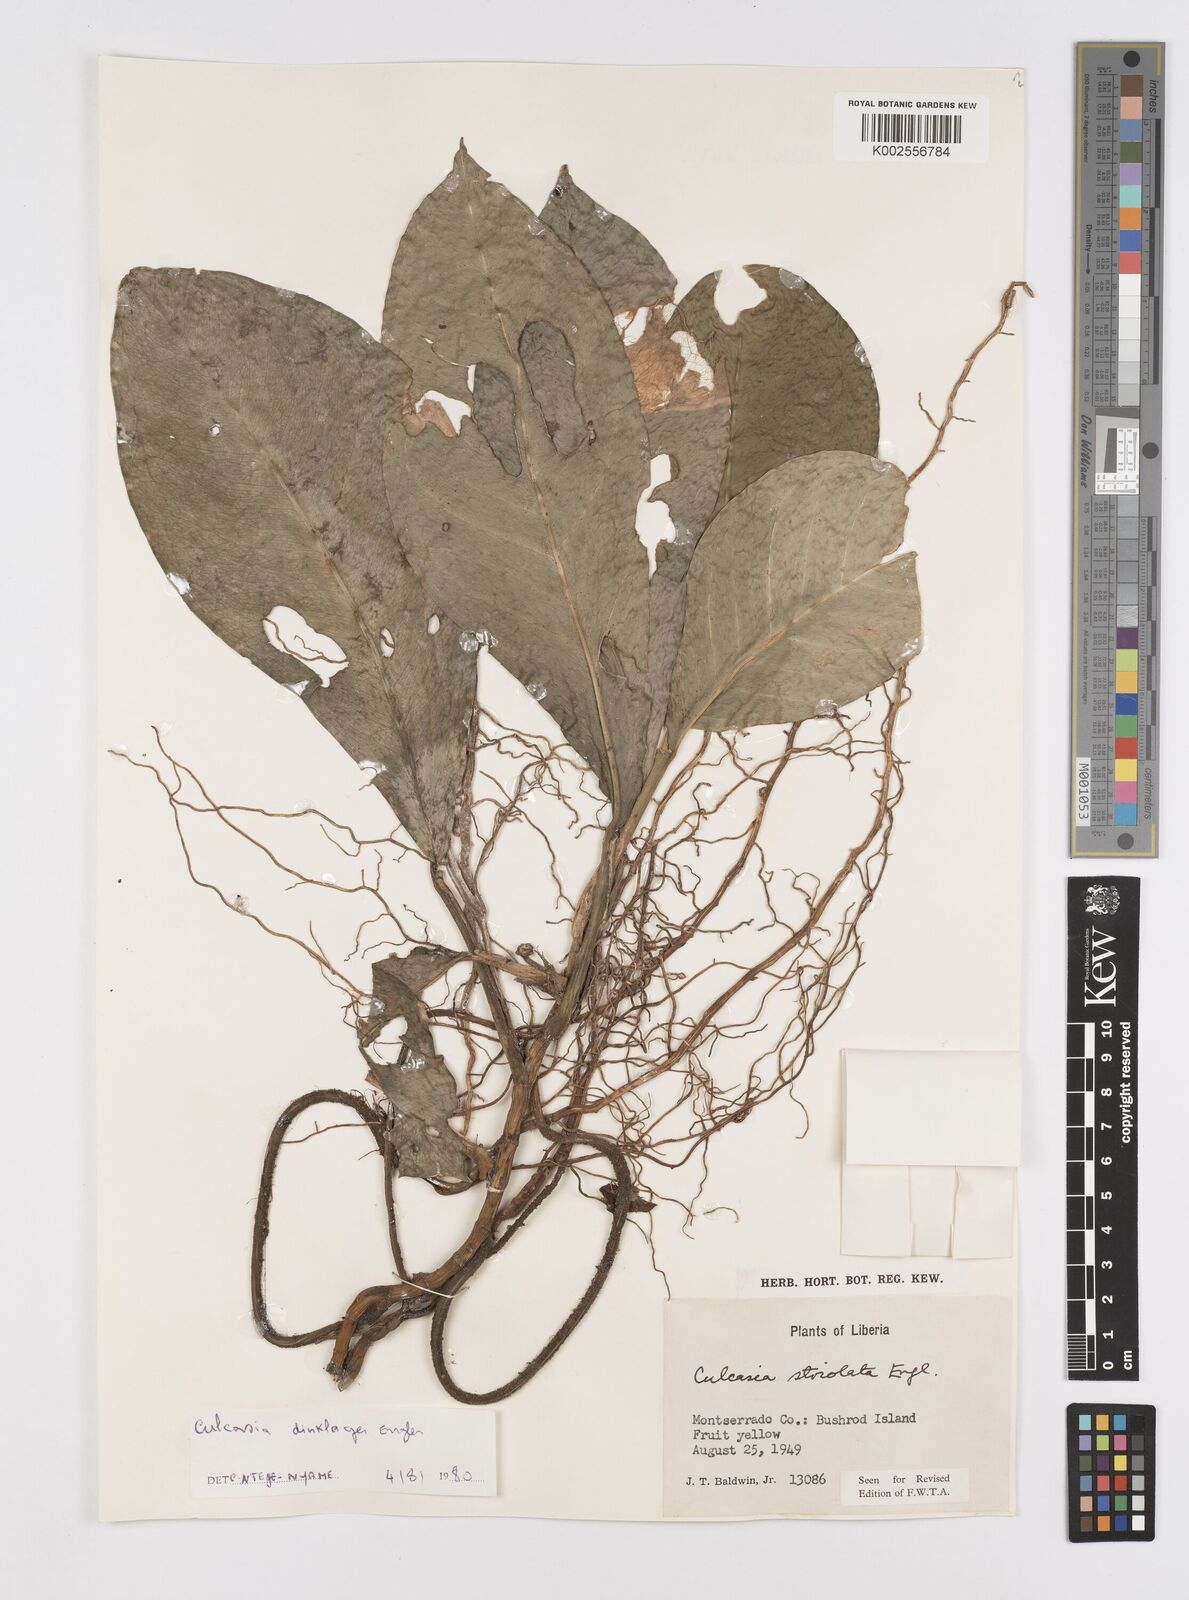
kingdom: Plantae
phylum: Tracheophyta
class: Liliopsida
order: Alismatales
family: Araceae
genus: Culcasia
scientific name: Culcasia dinklagei
